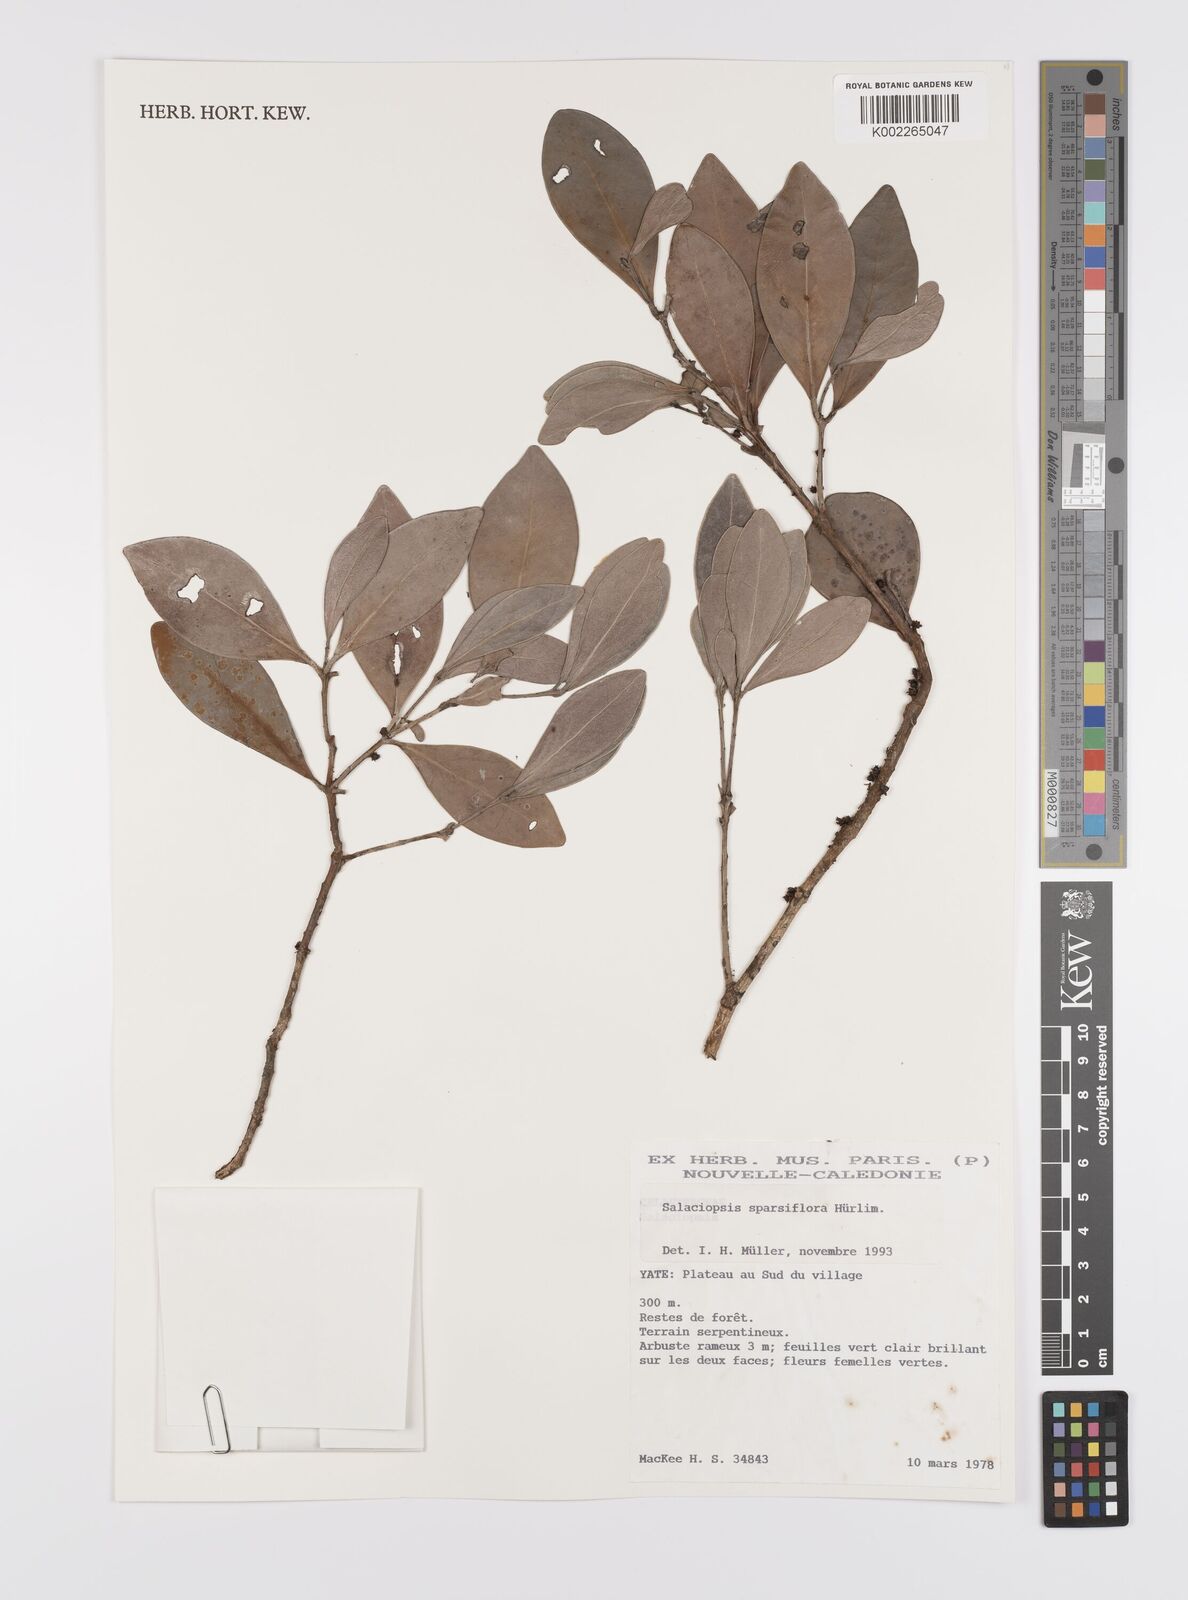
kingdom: Plantae
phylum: Tracheophyta
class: Magnoliopsida
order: Celastrales
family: Celastraceae
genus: Salaciopsis
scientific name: Salaciopsis sparsiflora
